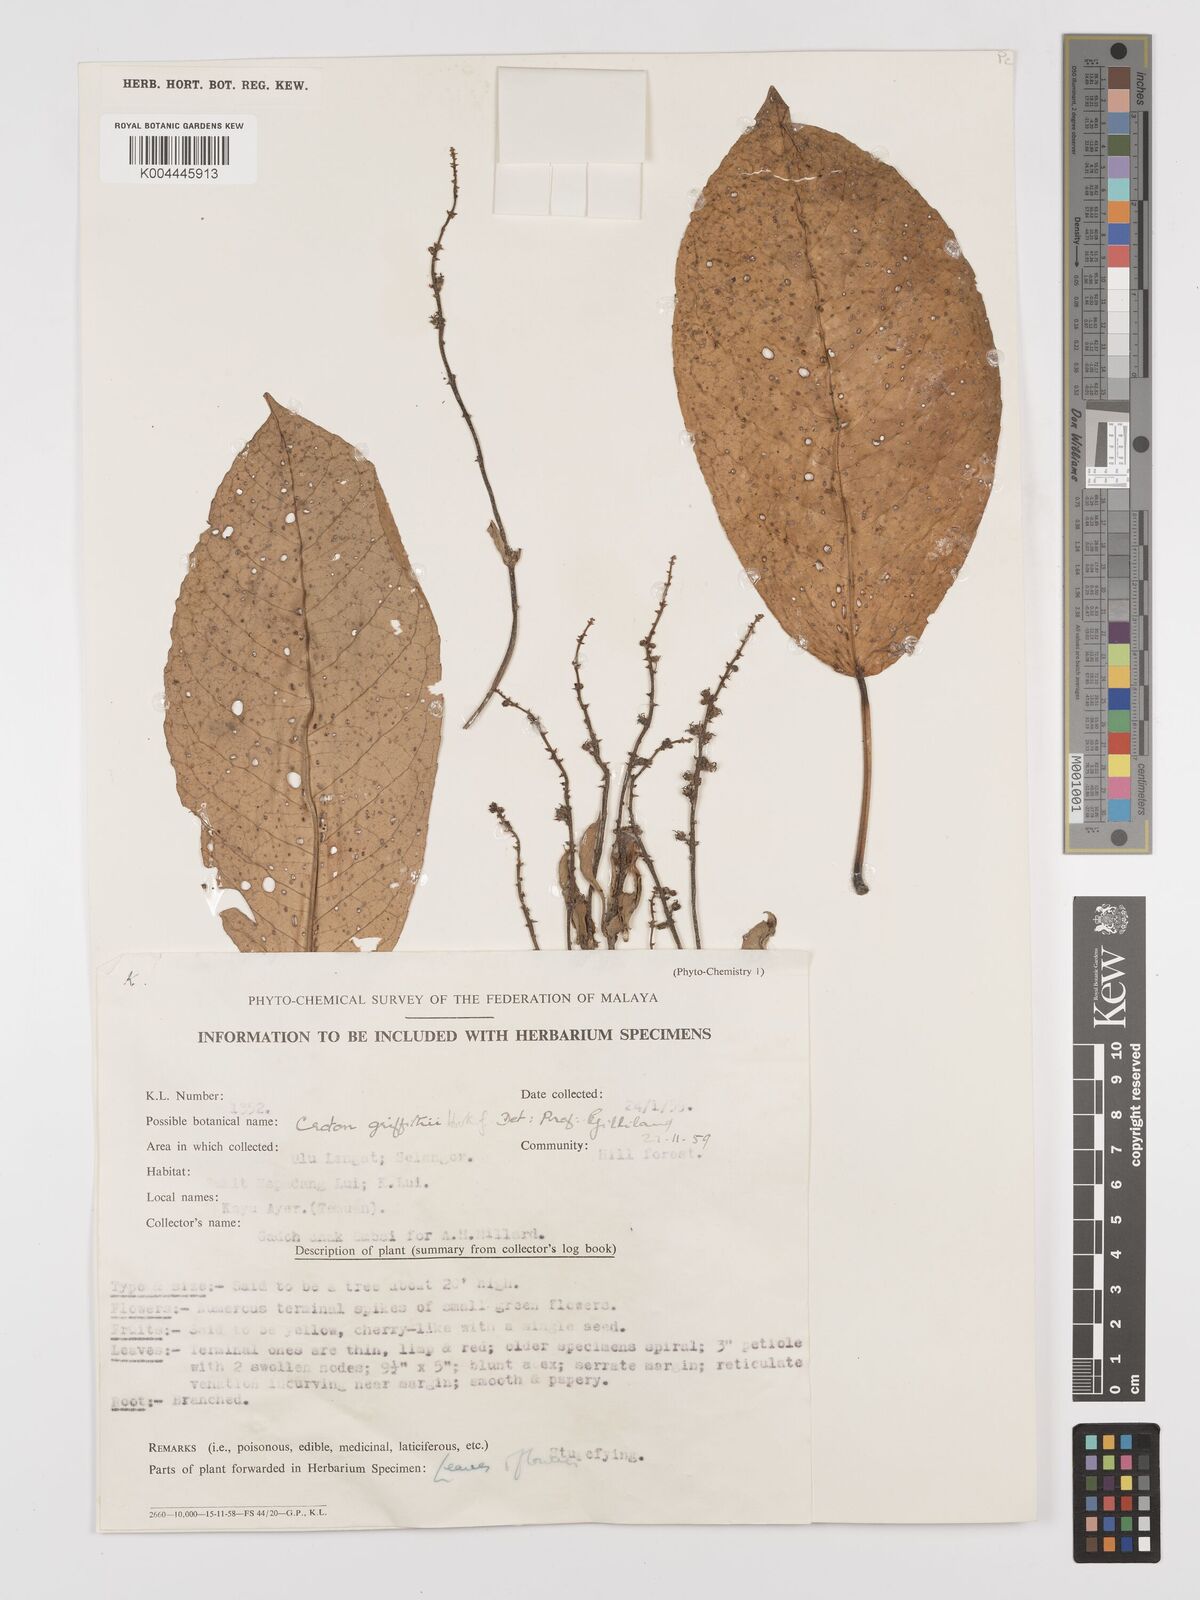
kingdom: Plantae
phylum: Tracheophyta
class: Magnoliopsida
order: Malpighiales
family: Euphorbiaceae
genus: Croton
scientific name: Croton griffithii
